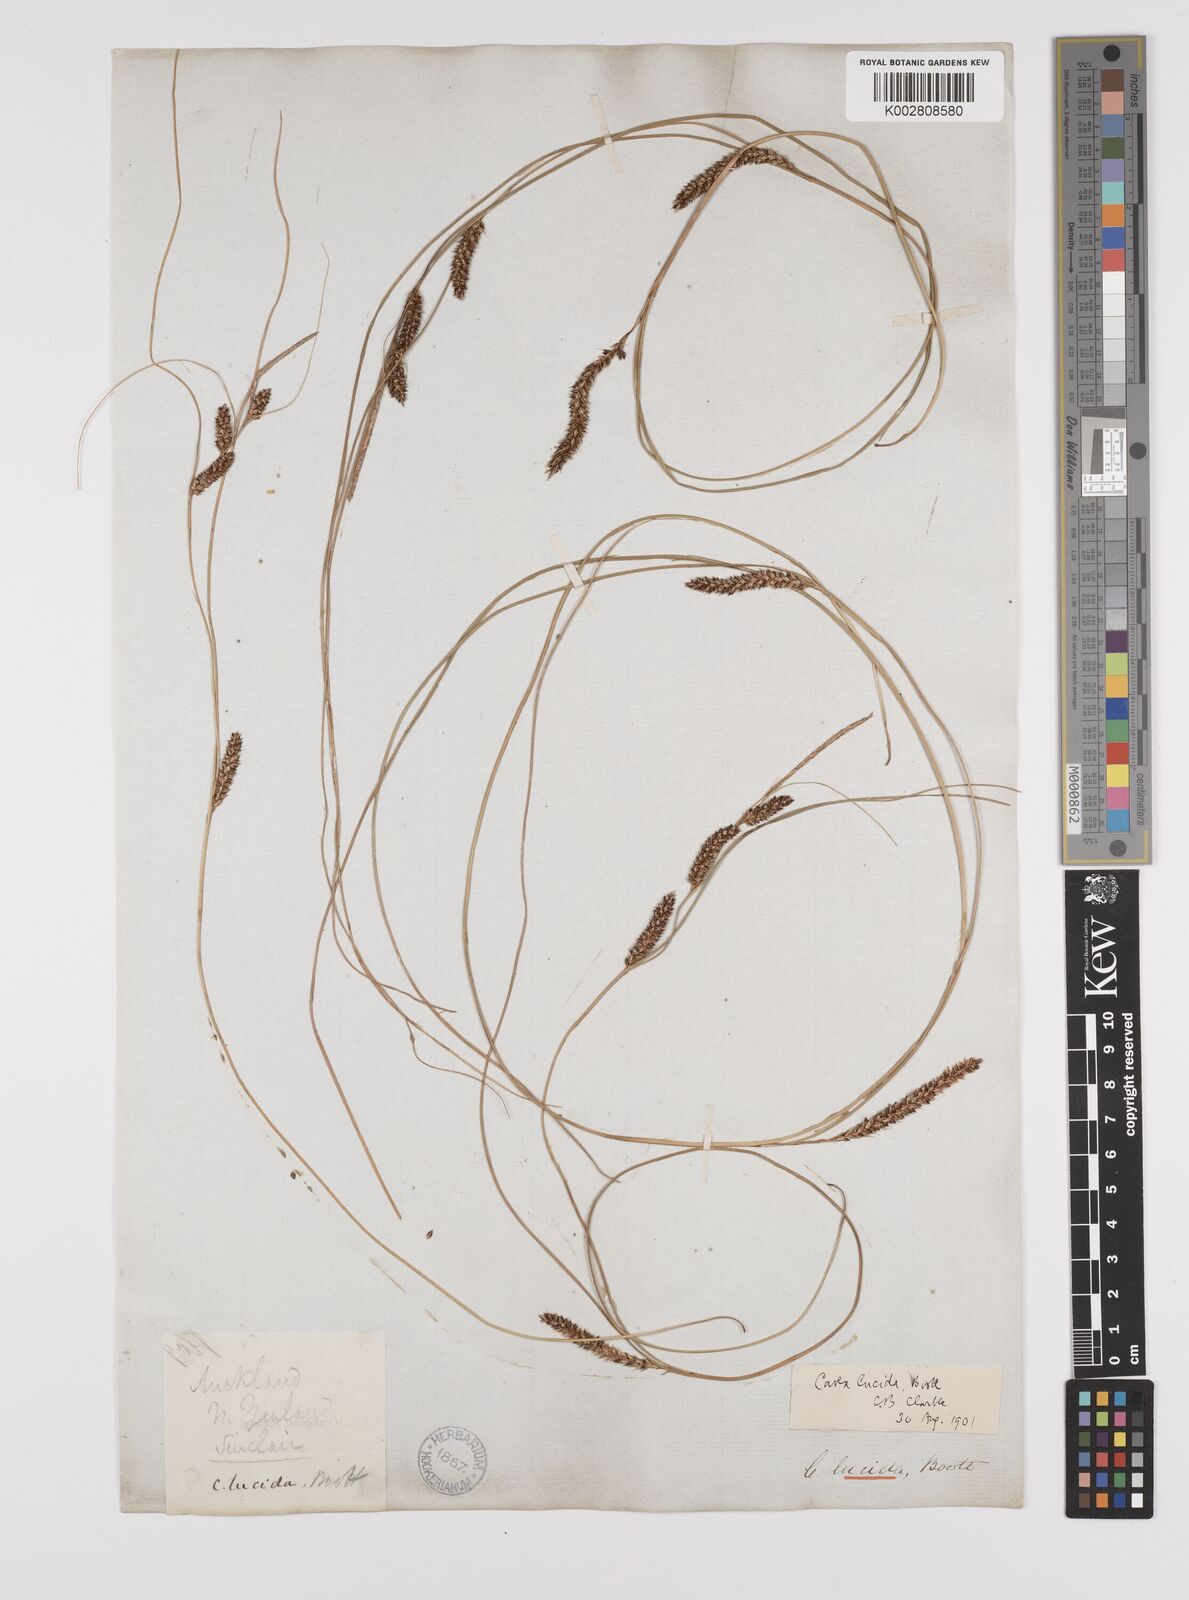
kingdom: Plantae
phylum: Tracheophyta
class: Liliopsida
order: Poales
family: Cyperaceae
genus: Carex
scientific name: Carex flagellifera
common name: Glen murray tussock
